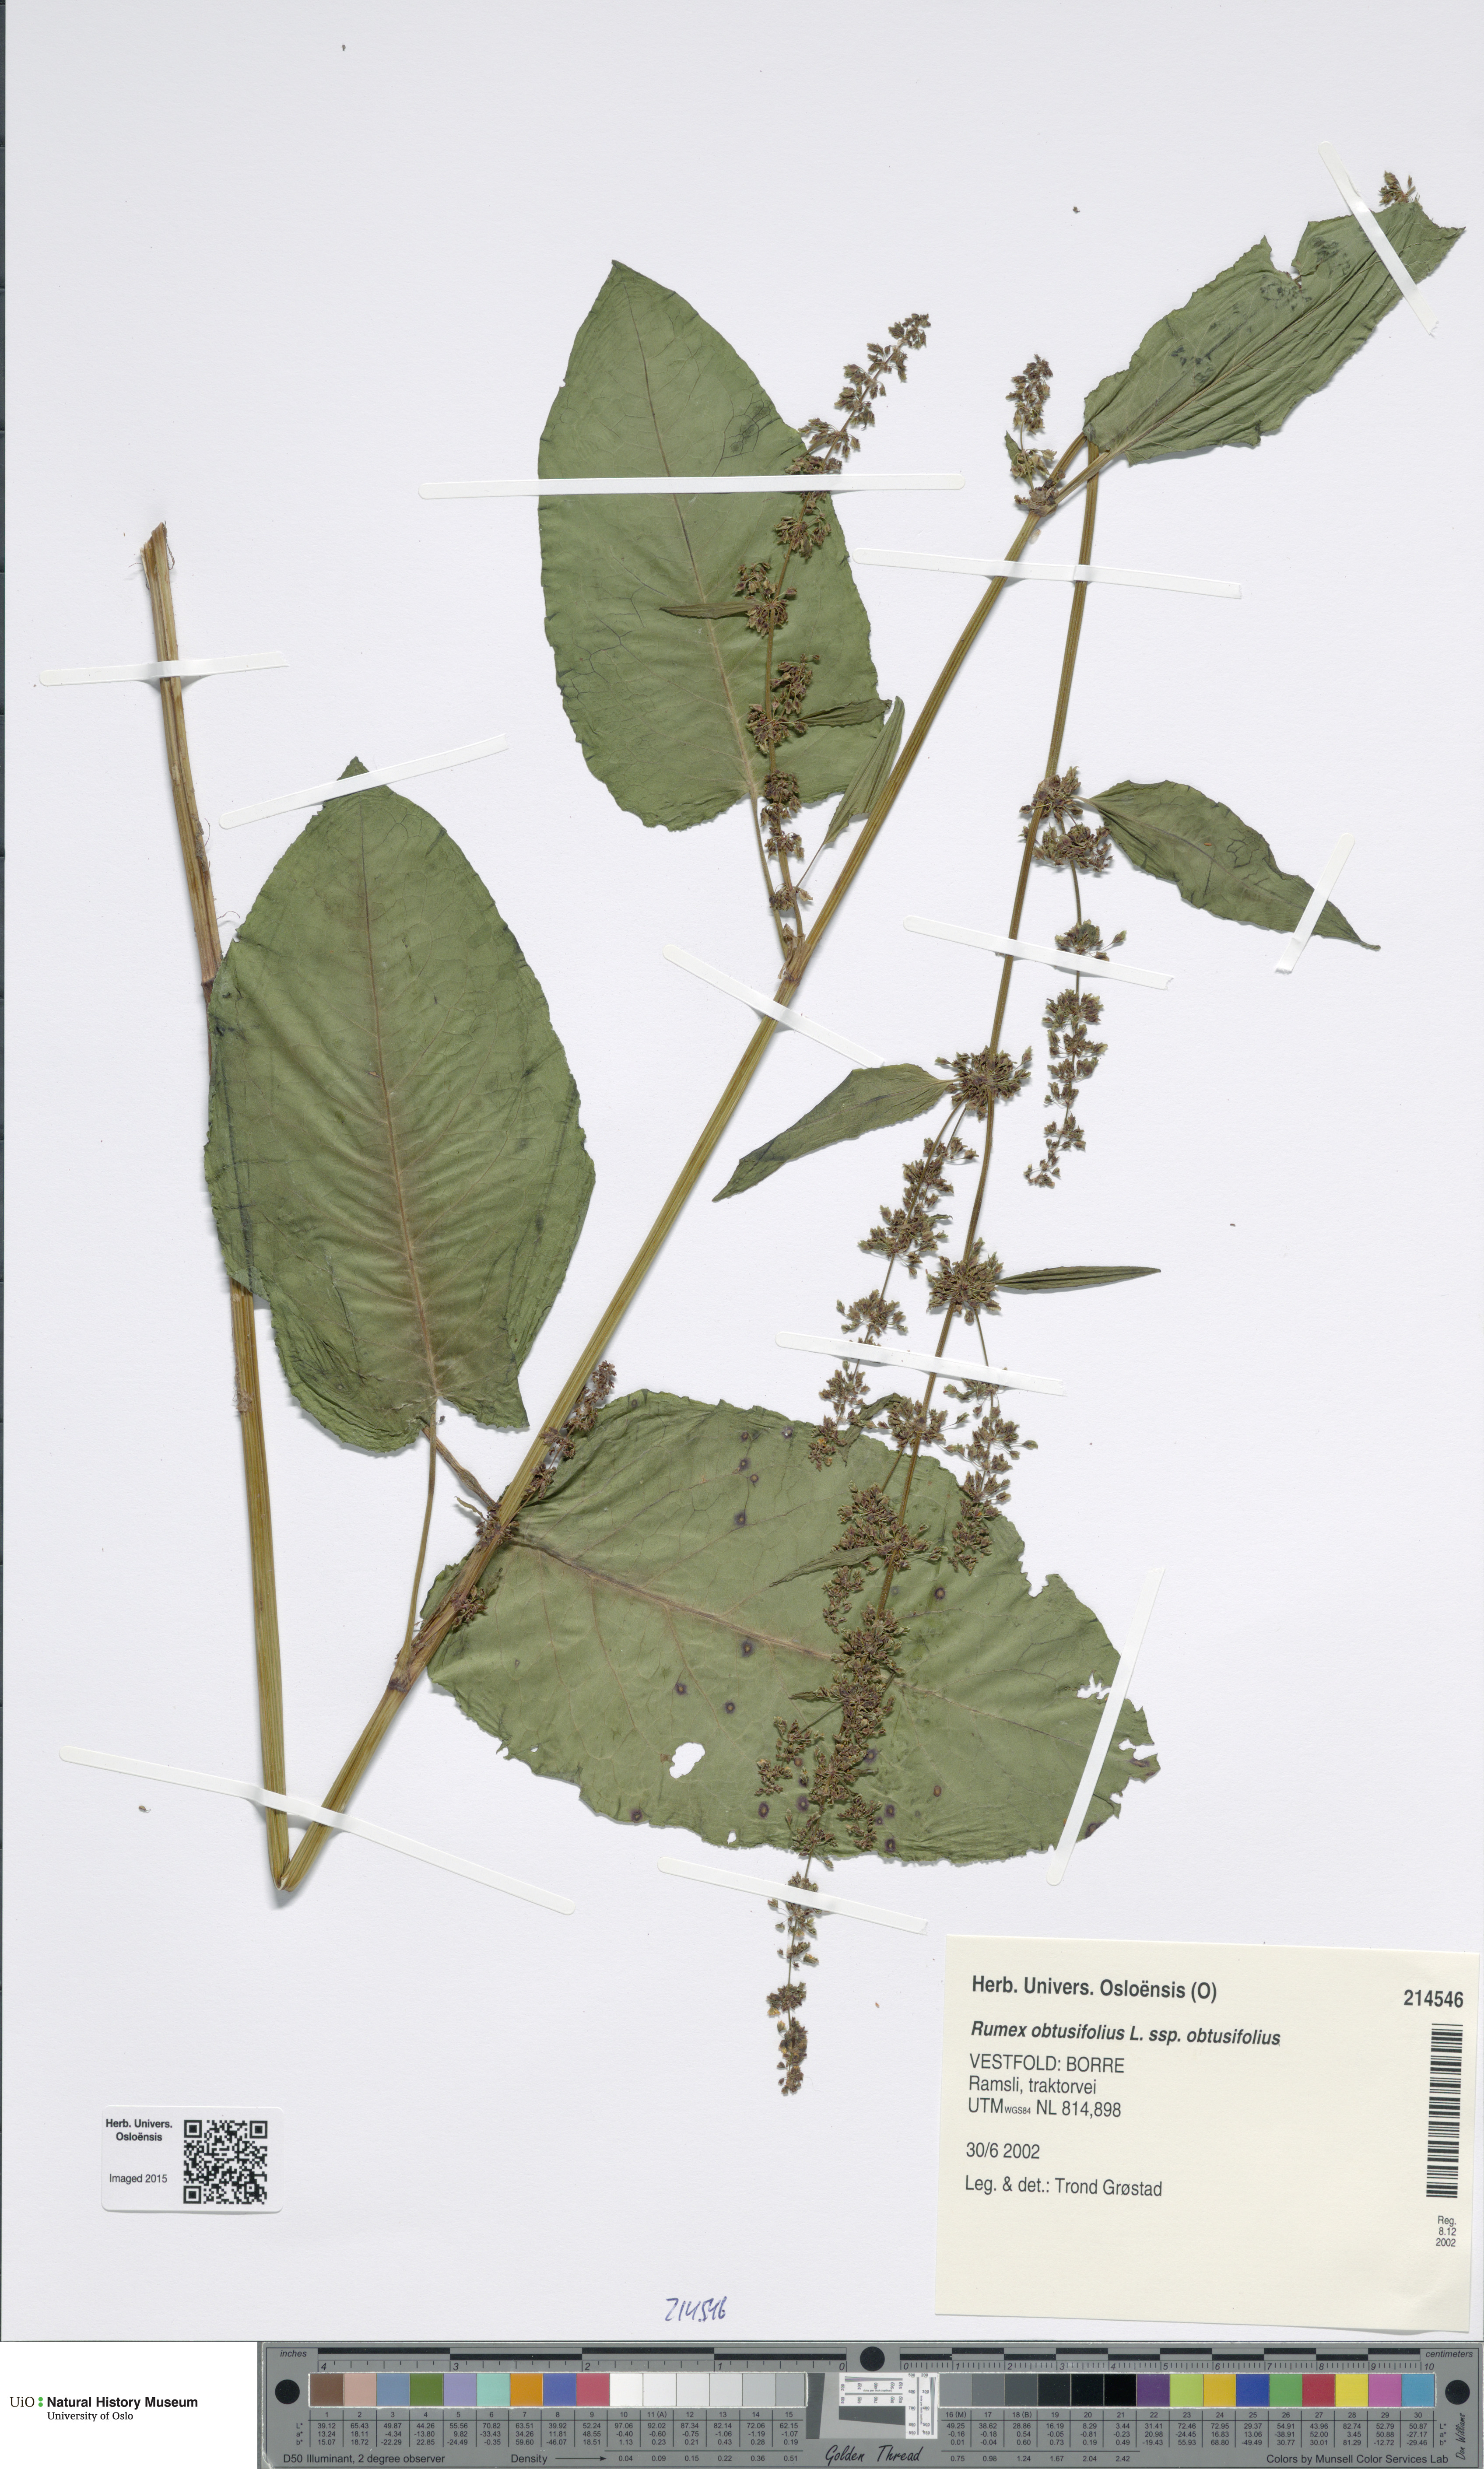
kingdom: Plantae
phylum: Tracheophyta
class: Magnoliopsida
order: Caryophyllales
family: Polygonaceae
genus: Rumex
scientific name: Rumex obtusifolius
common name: Bitter dock
